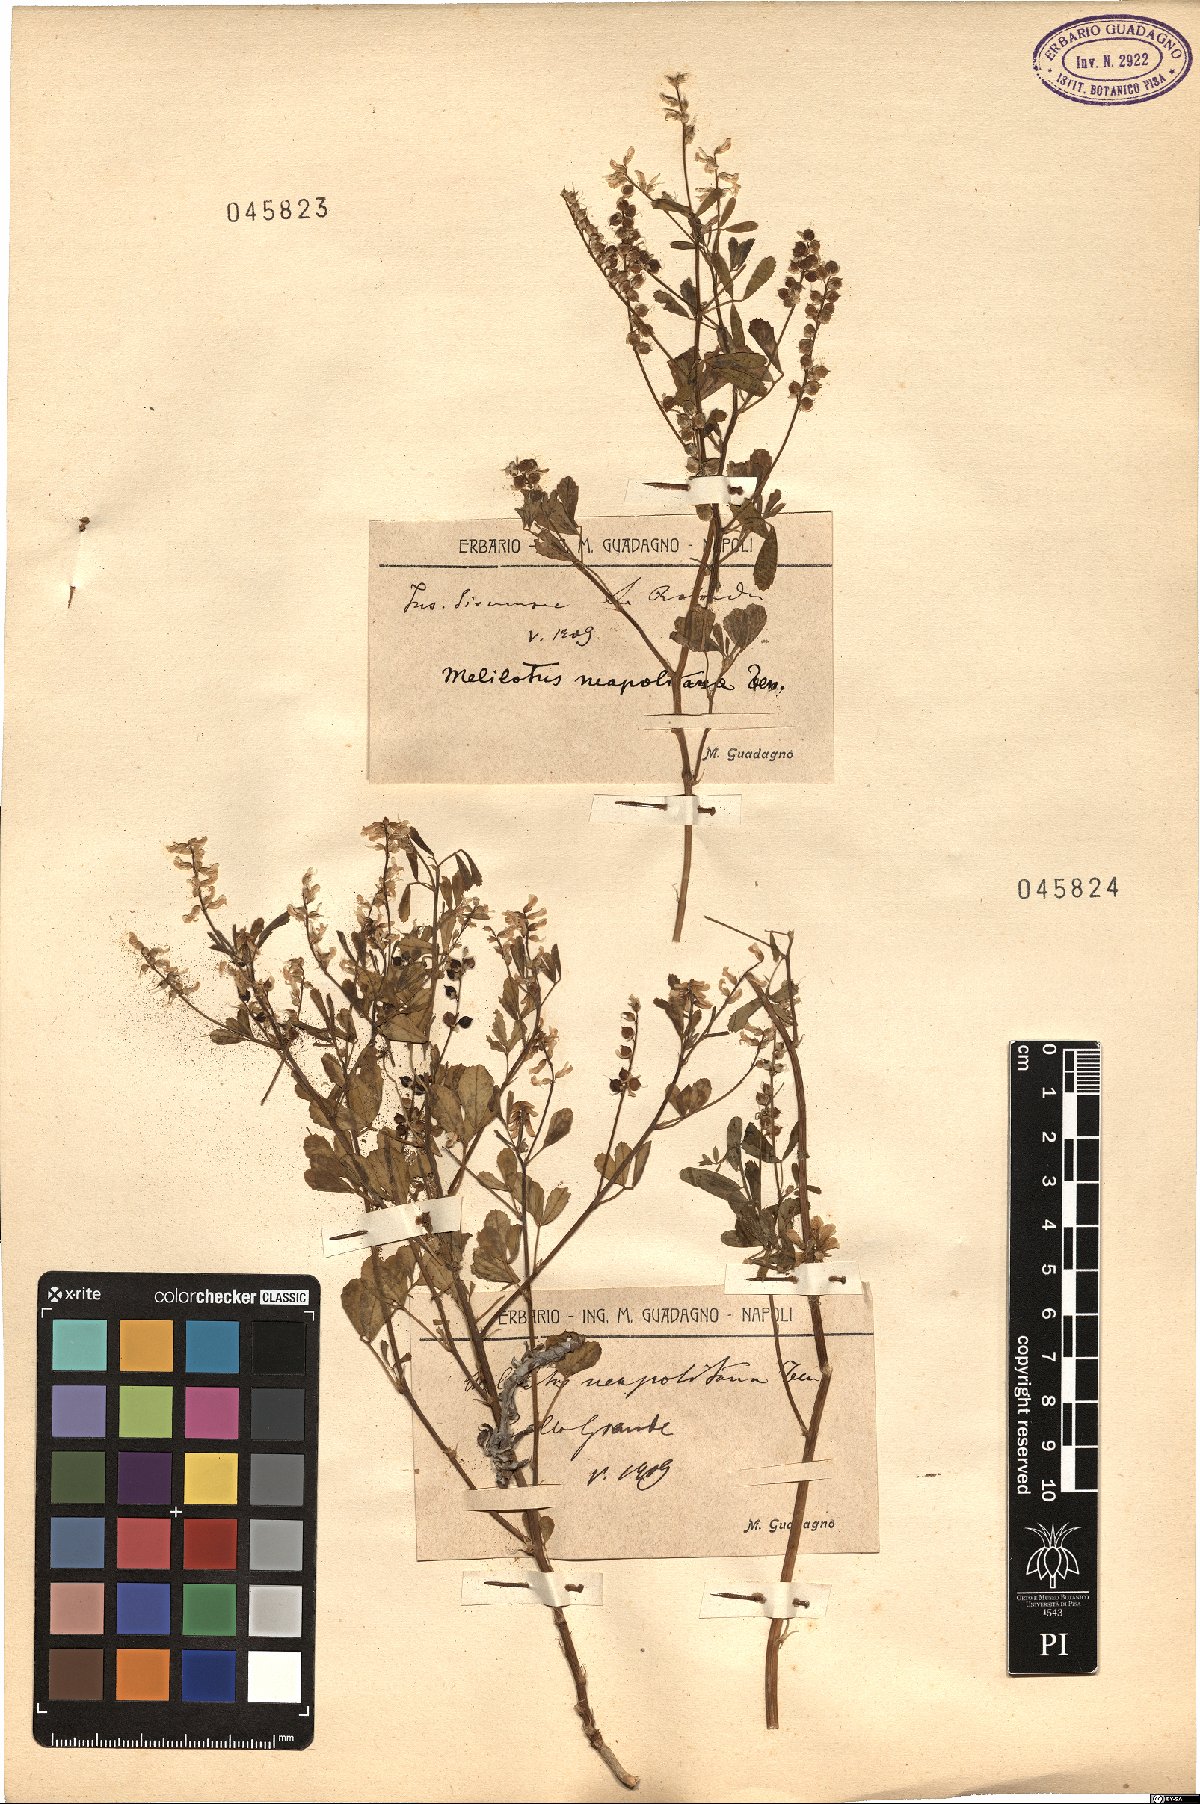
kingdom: Plantae
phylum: Tracheophyta
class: Magnoliopsida
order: Fabales
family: Fabaceae
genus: Melilotus
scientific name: Melilotus neapolitanus
